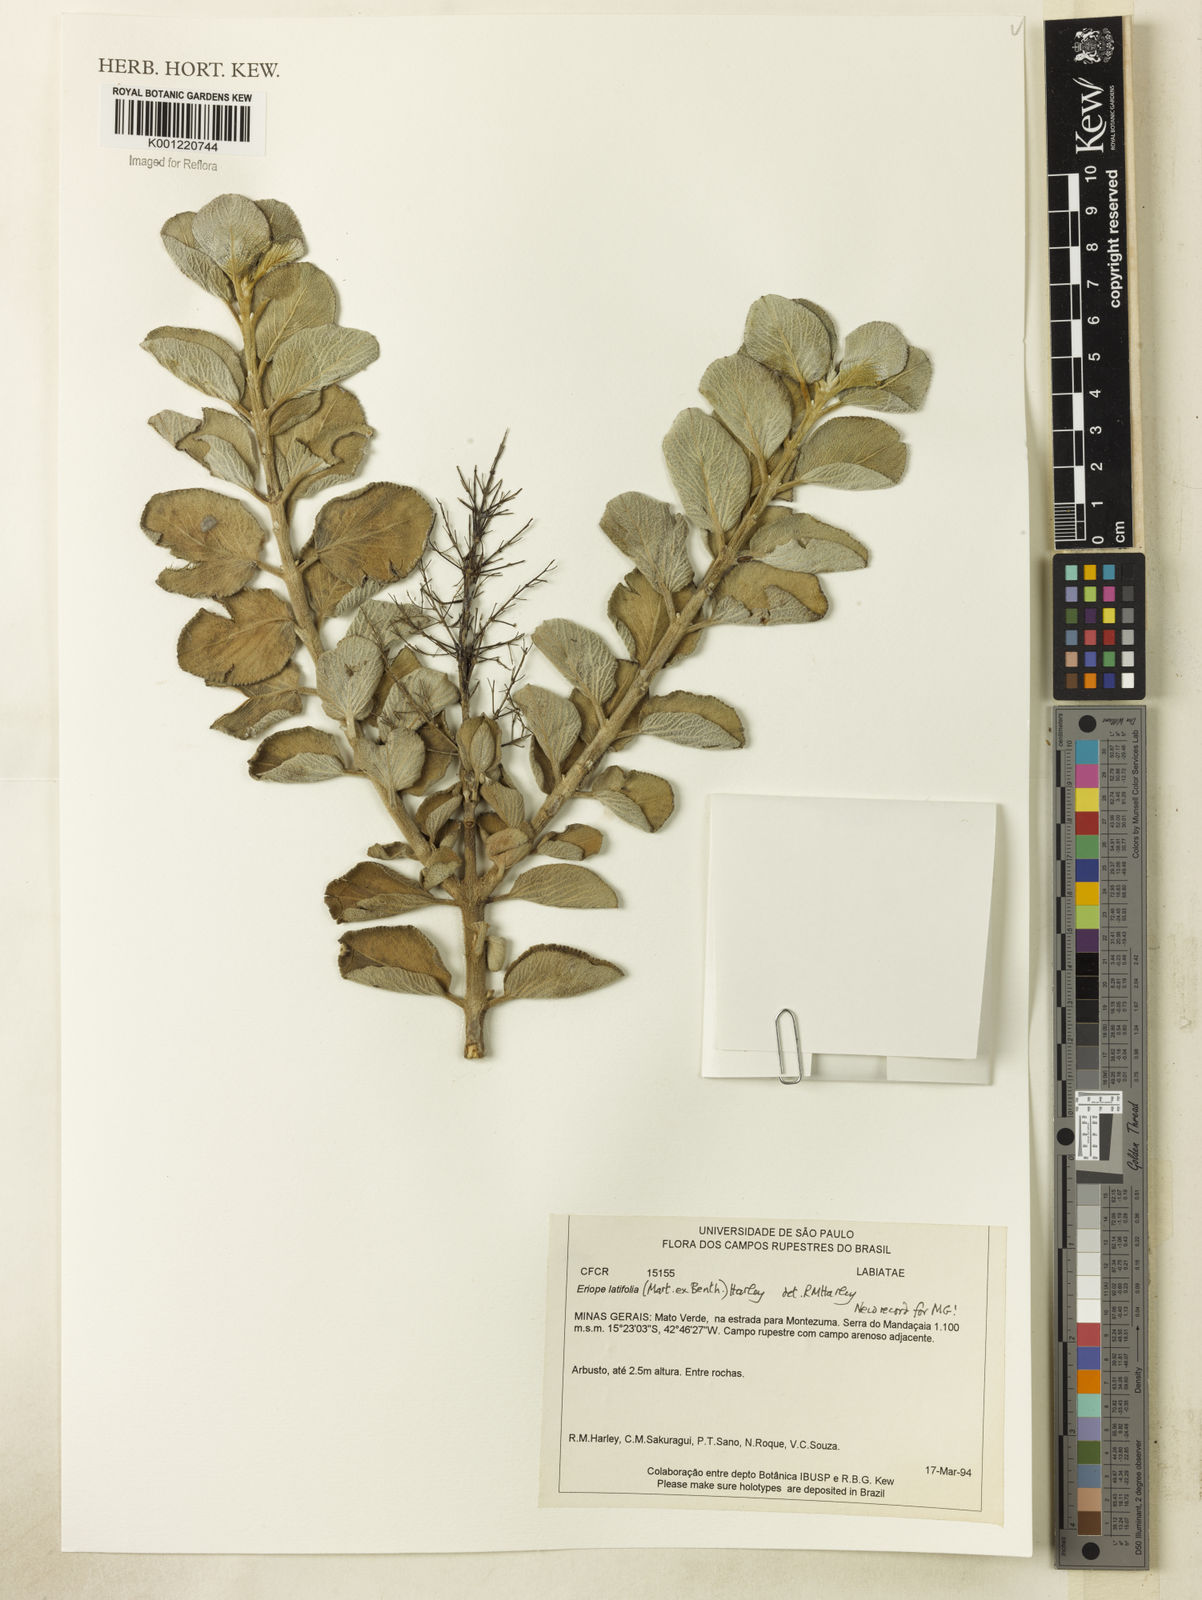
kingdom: Plantae
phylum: Tracheophyta
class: Magnoliopsida
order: Lamiales
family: Lamiaceae
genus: Eriope
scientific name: Eriope latifolia
